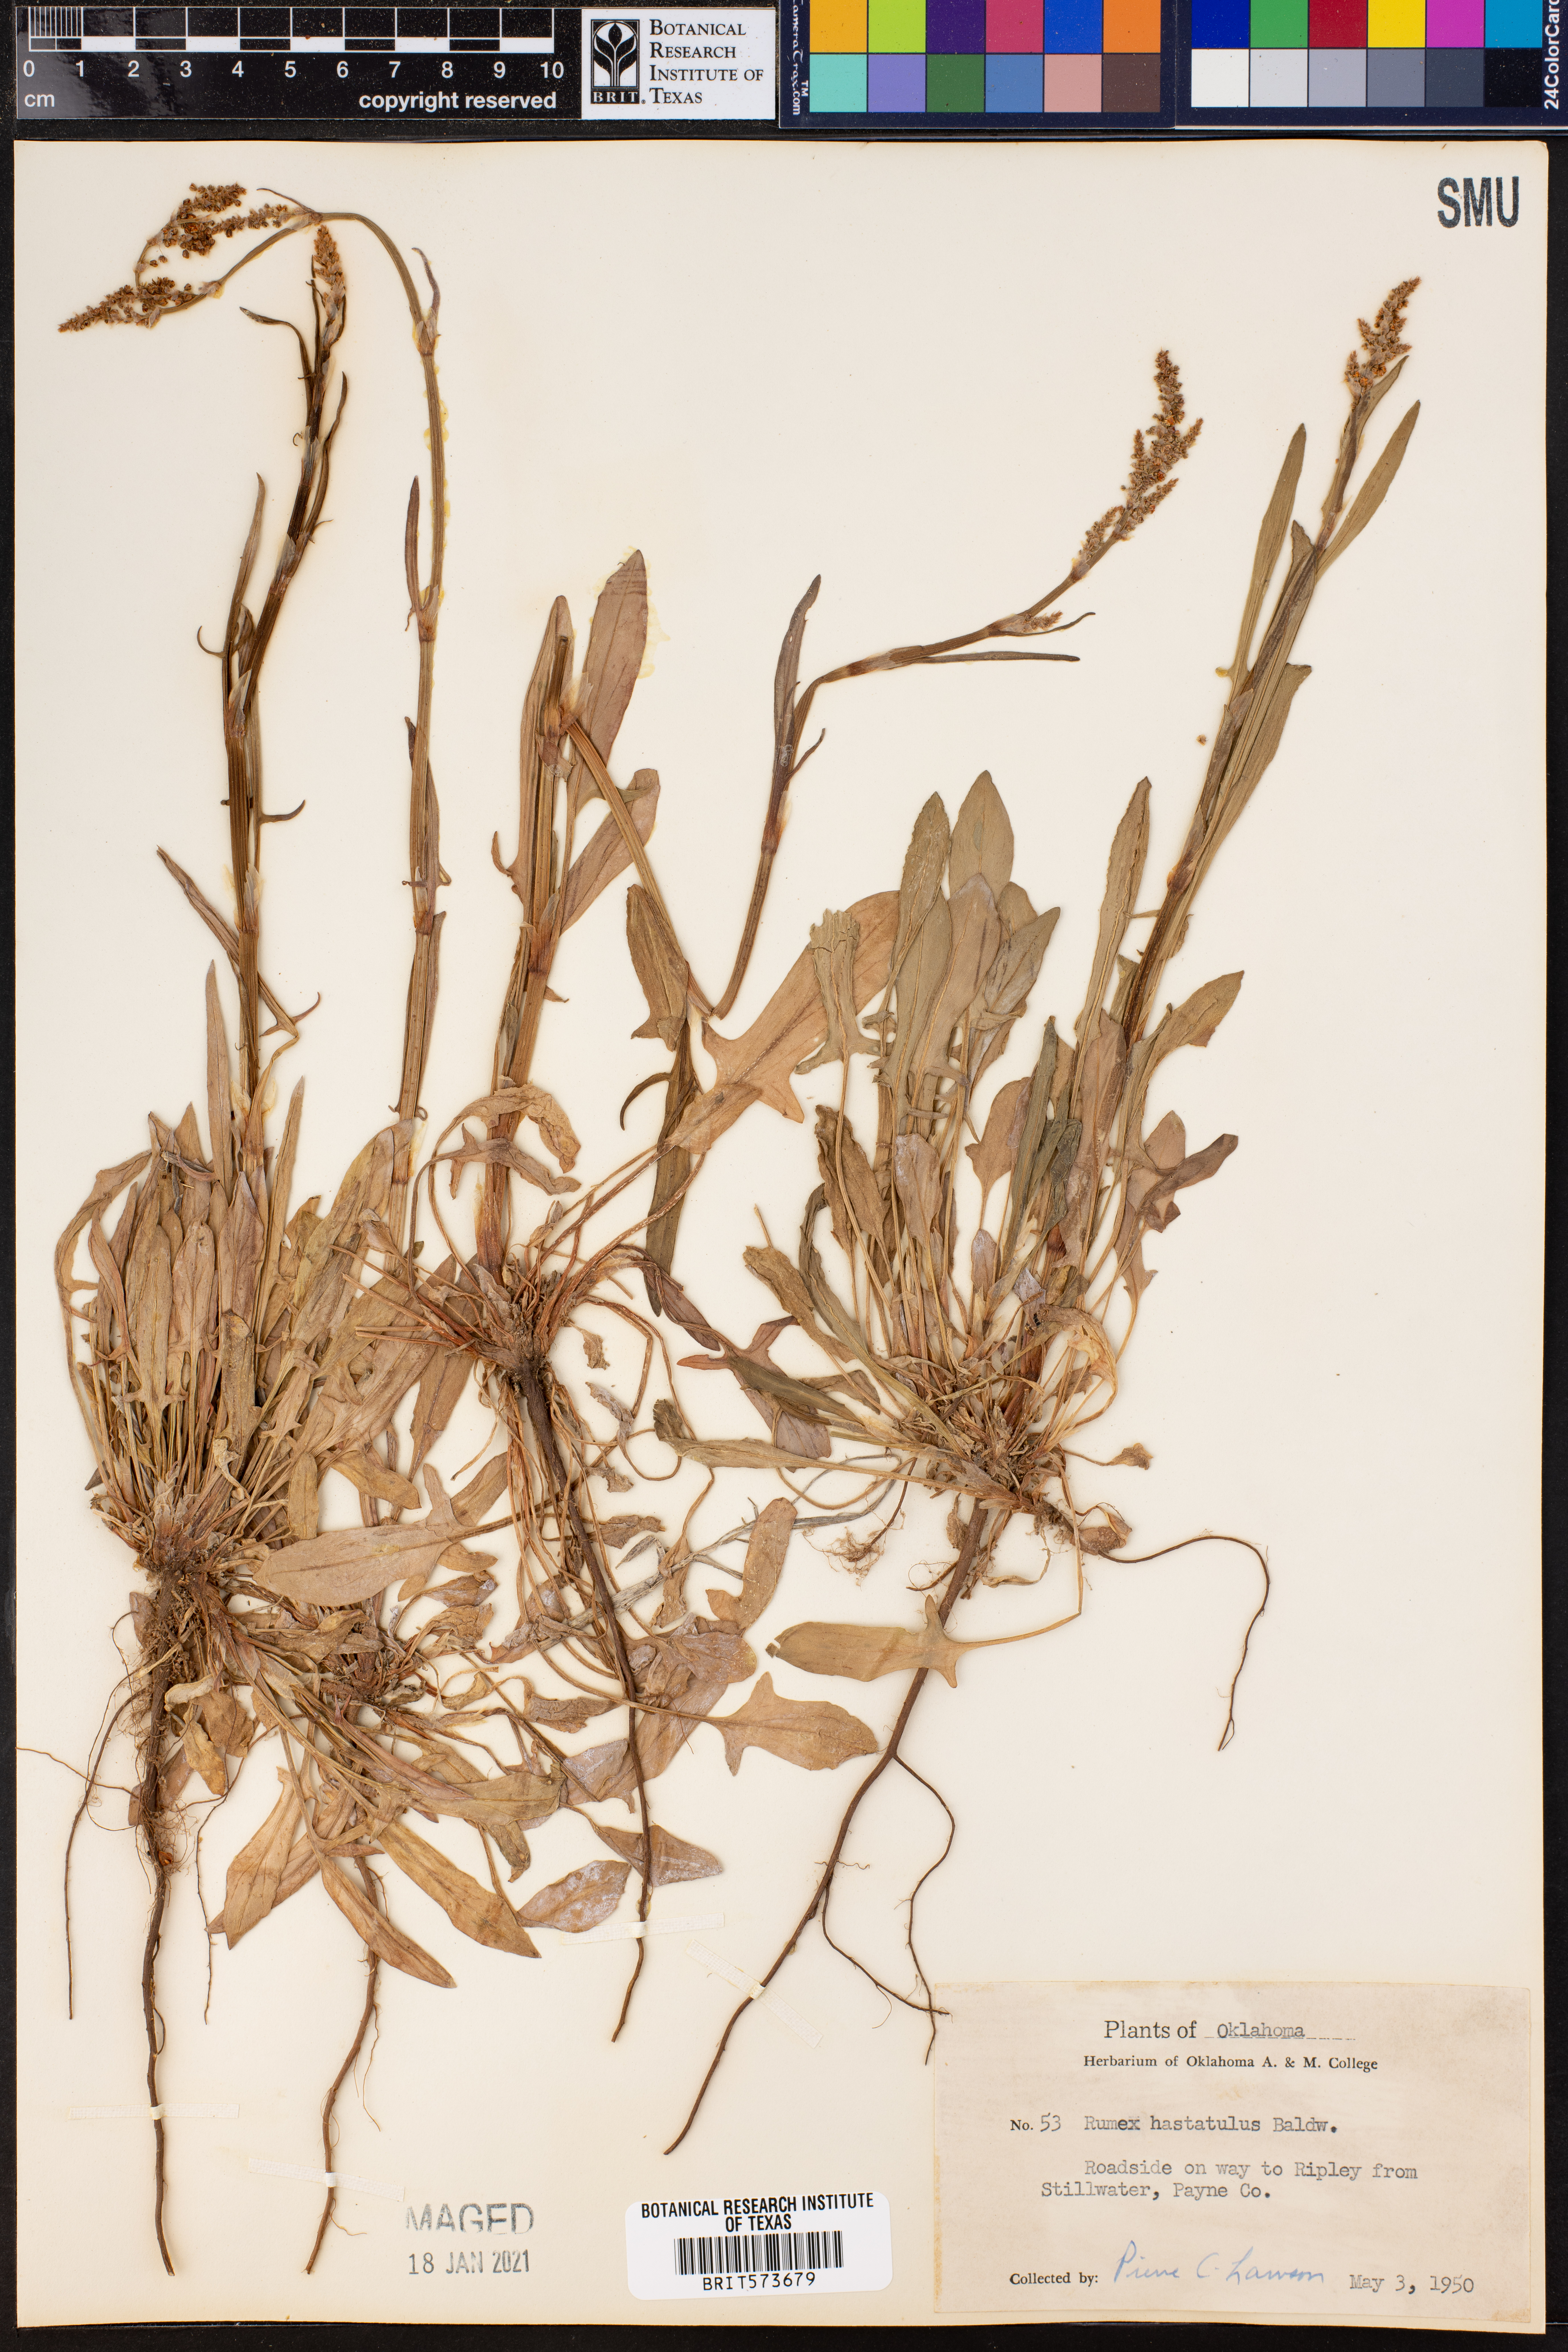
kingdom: Plantae
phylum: Tracheophyta
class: Magnoliopsida
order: Caryophyllales
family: Polygonaceae
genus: Rumex
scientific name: Rumex hastatulus
